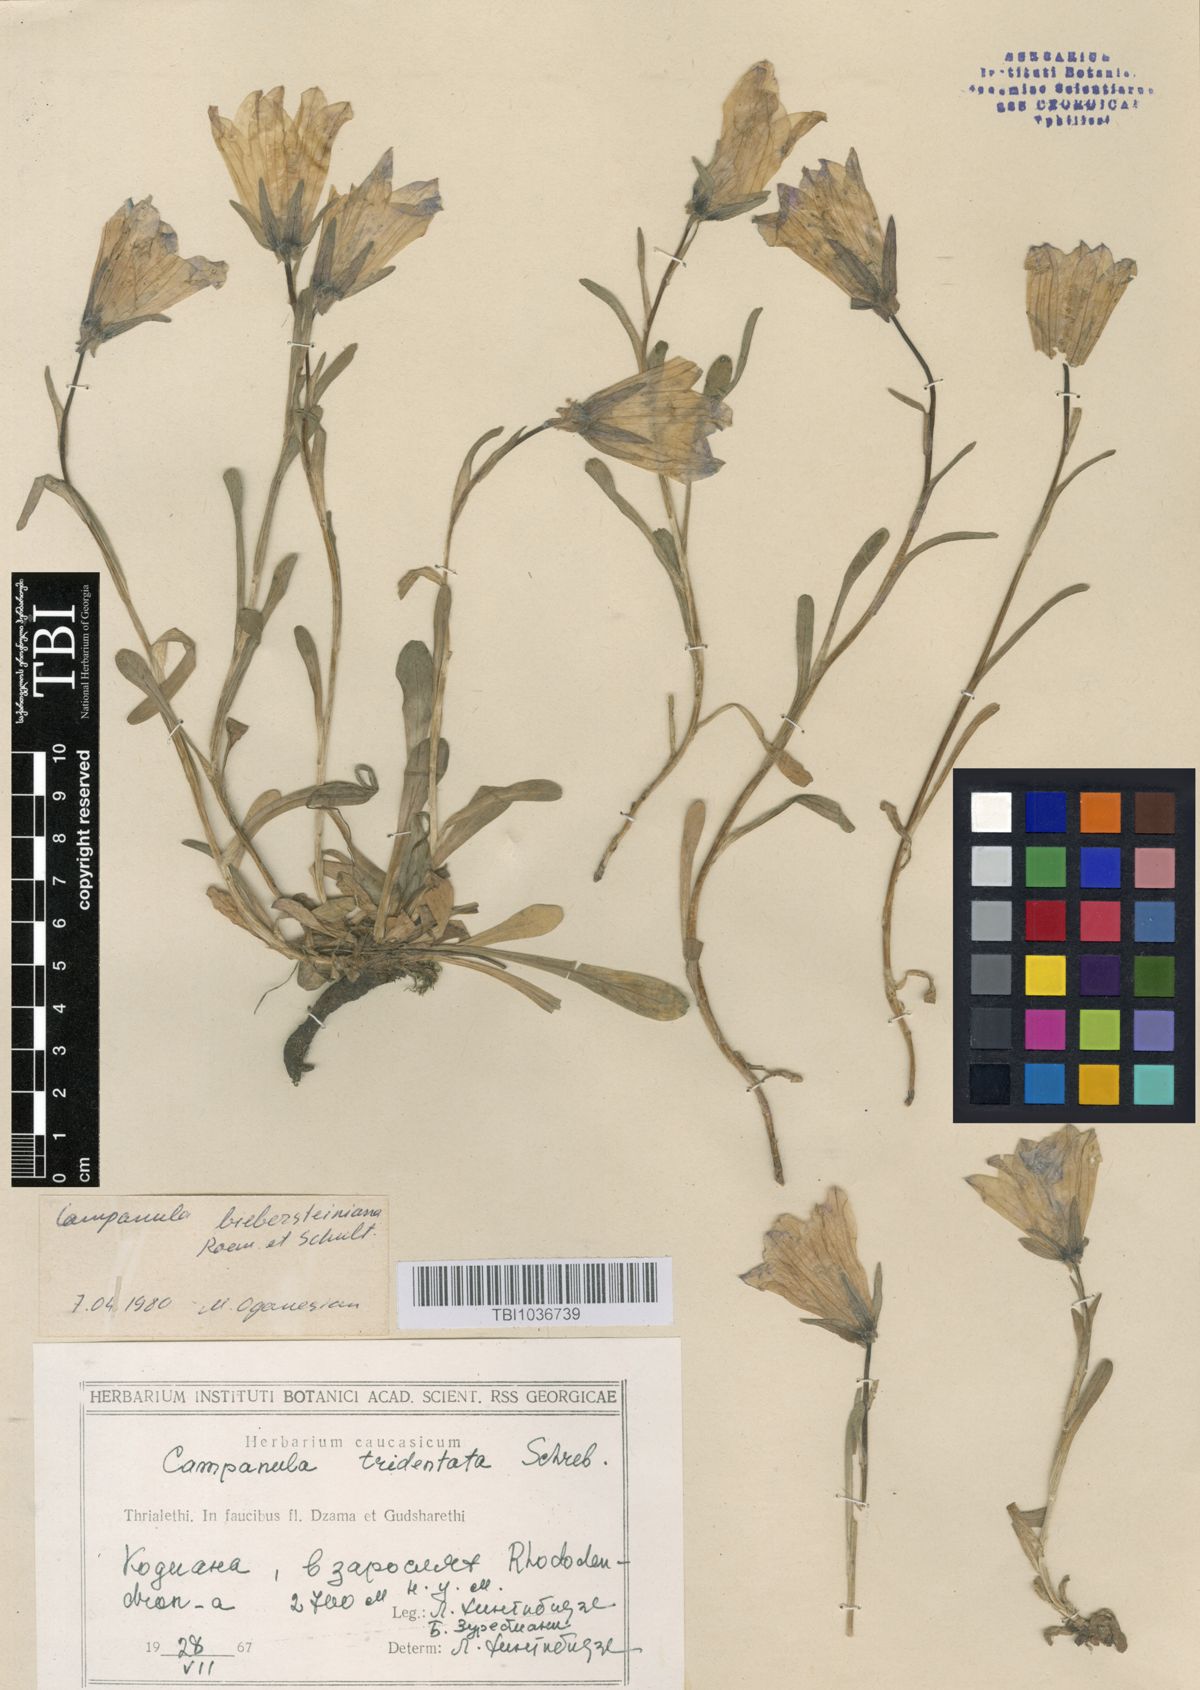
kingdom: Plantae
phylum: Tracheophyta
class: Magnoliopsida
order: Asterales
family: Campanulaceae
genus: Campanula
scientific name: Campanula tridentata
